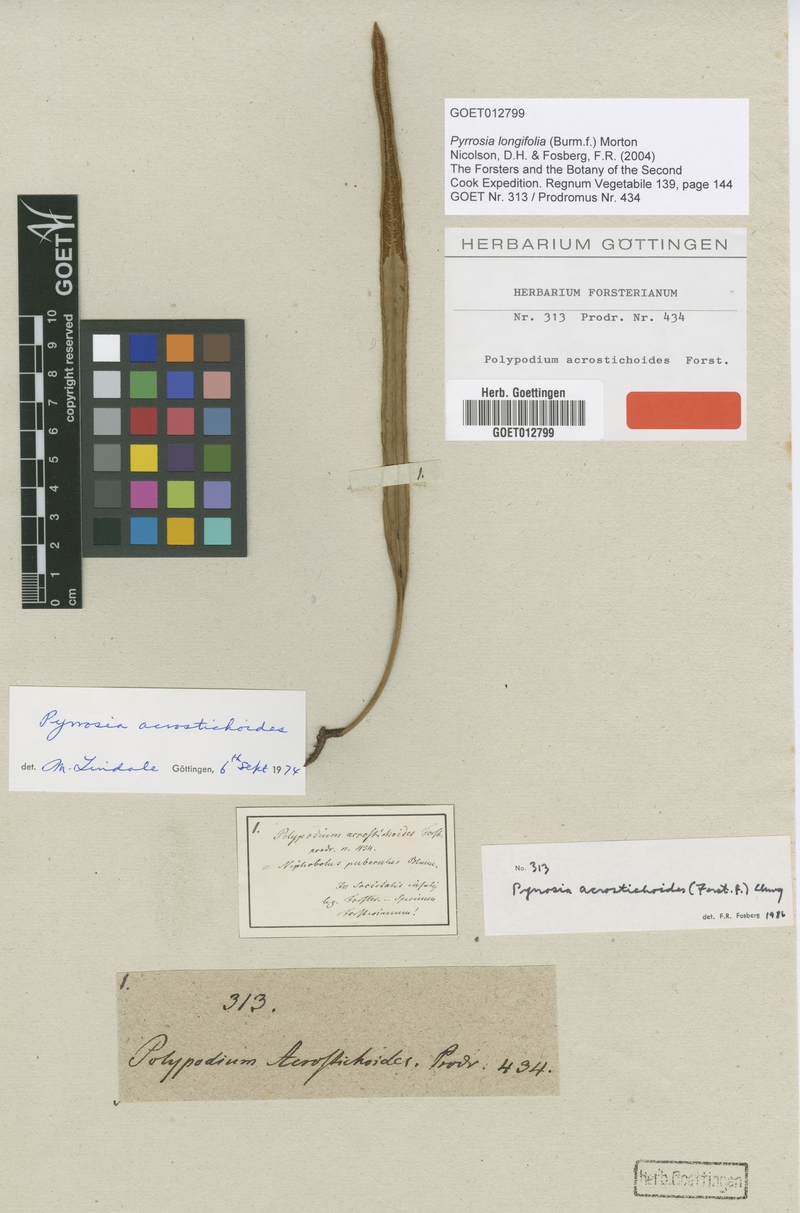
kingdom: Plantae
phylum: Tracheophyta
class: Polypodiopsida
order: Polypodiales
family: Polypodiaceae
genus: Pyrrosia
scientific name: Pyrrosia longifolia
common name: Long-leaved felt fern
